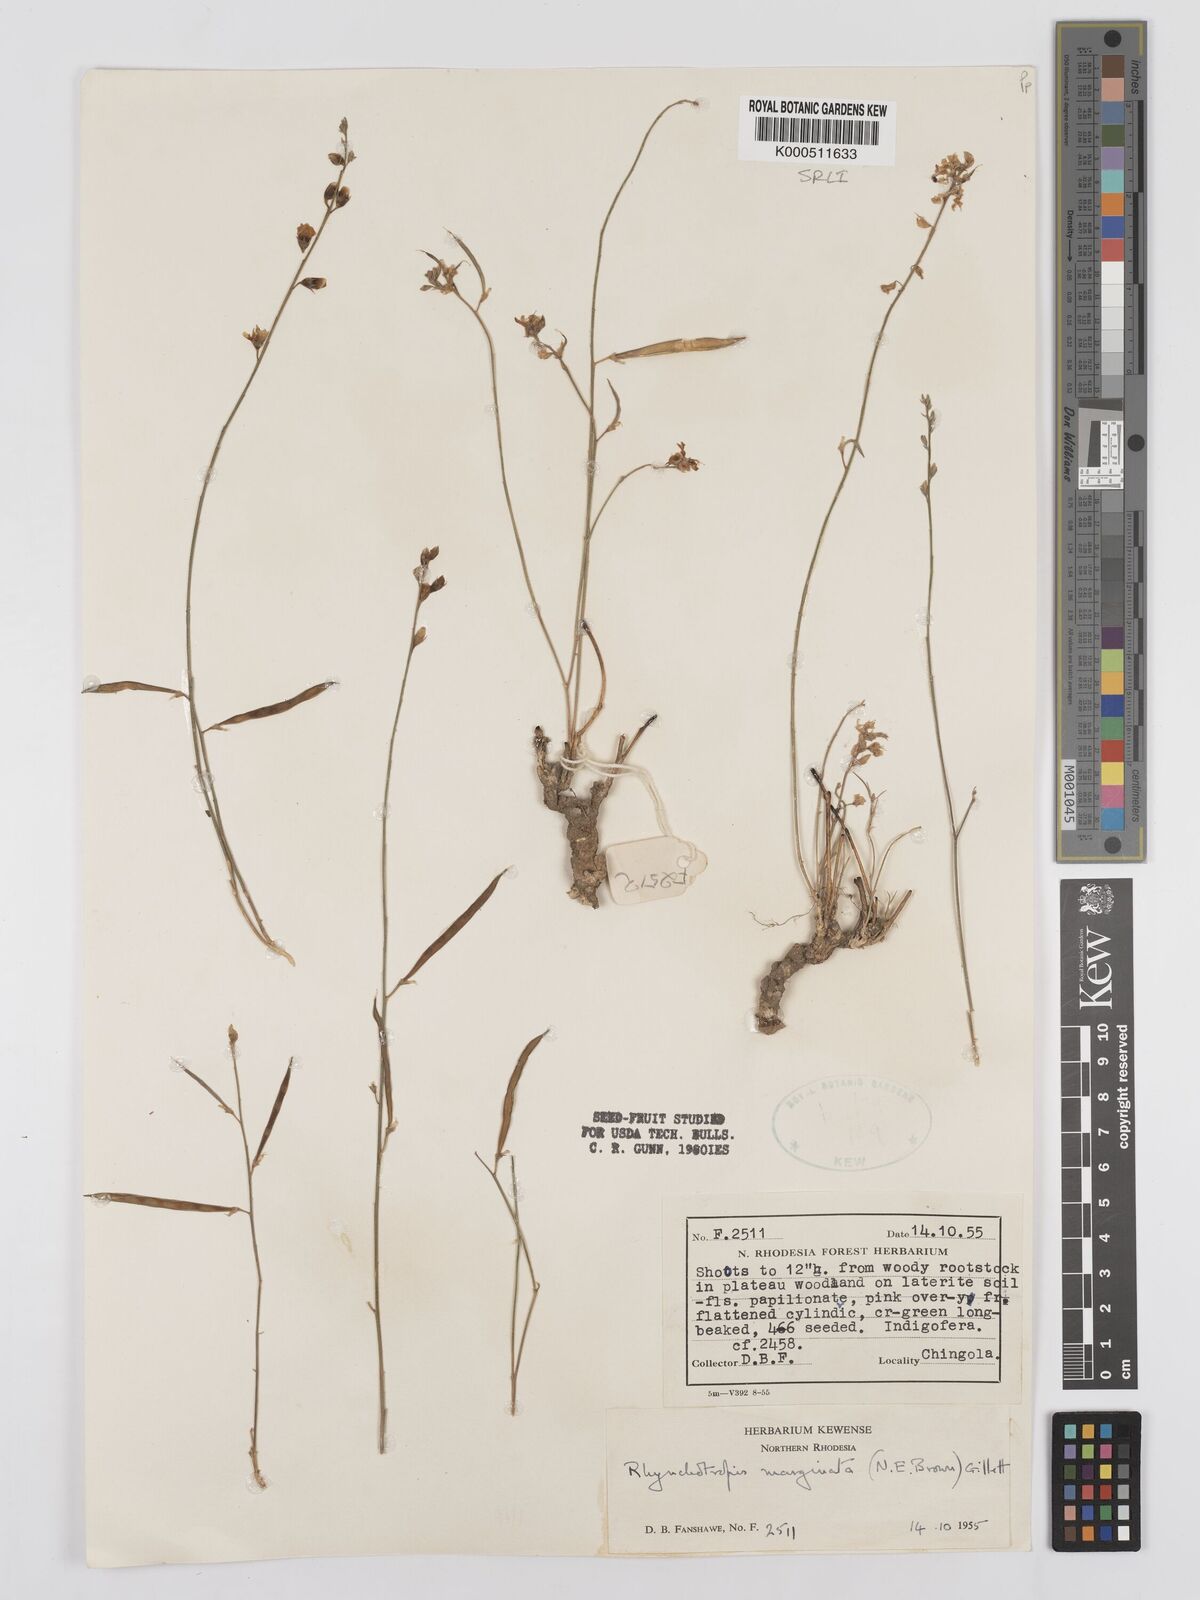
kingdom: Plantae
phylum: Tracheophyta
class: Magnoliopsida
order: Fabales
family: Fabaceae
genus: Rhynchotropis
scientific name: Rhynchotropis marginata
